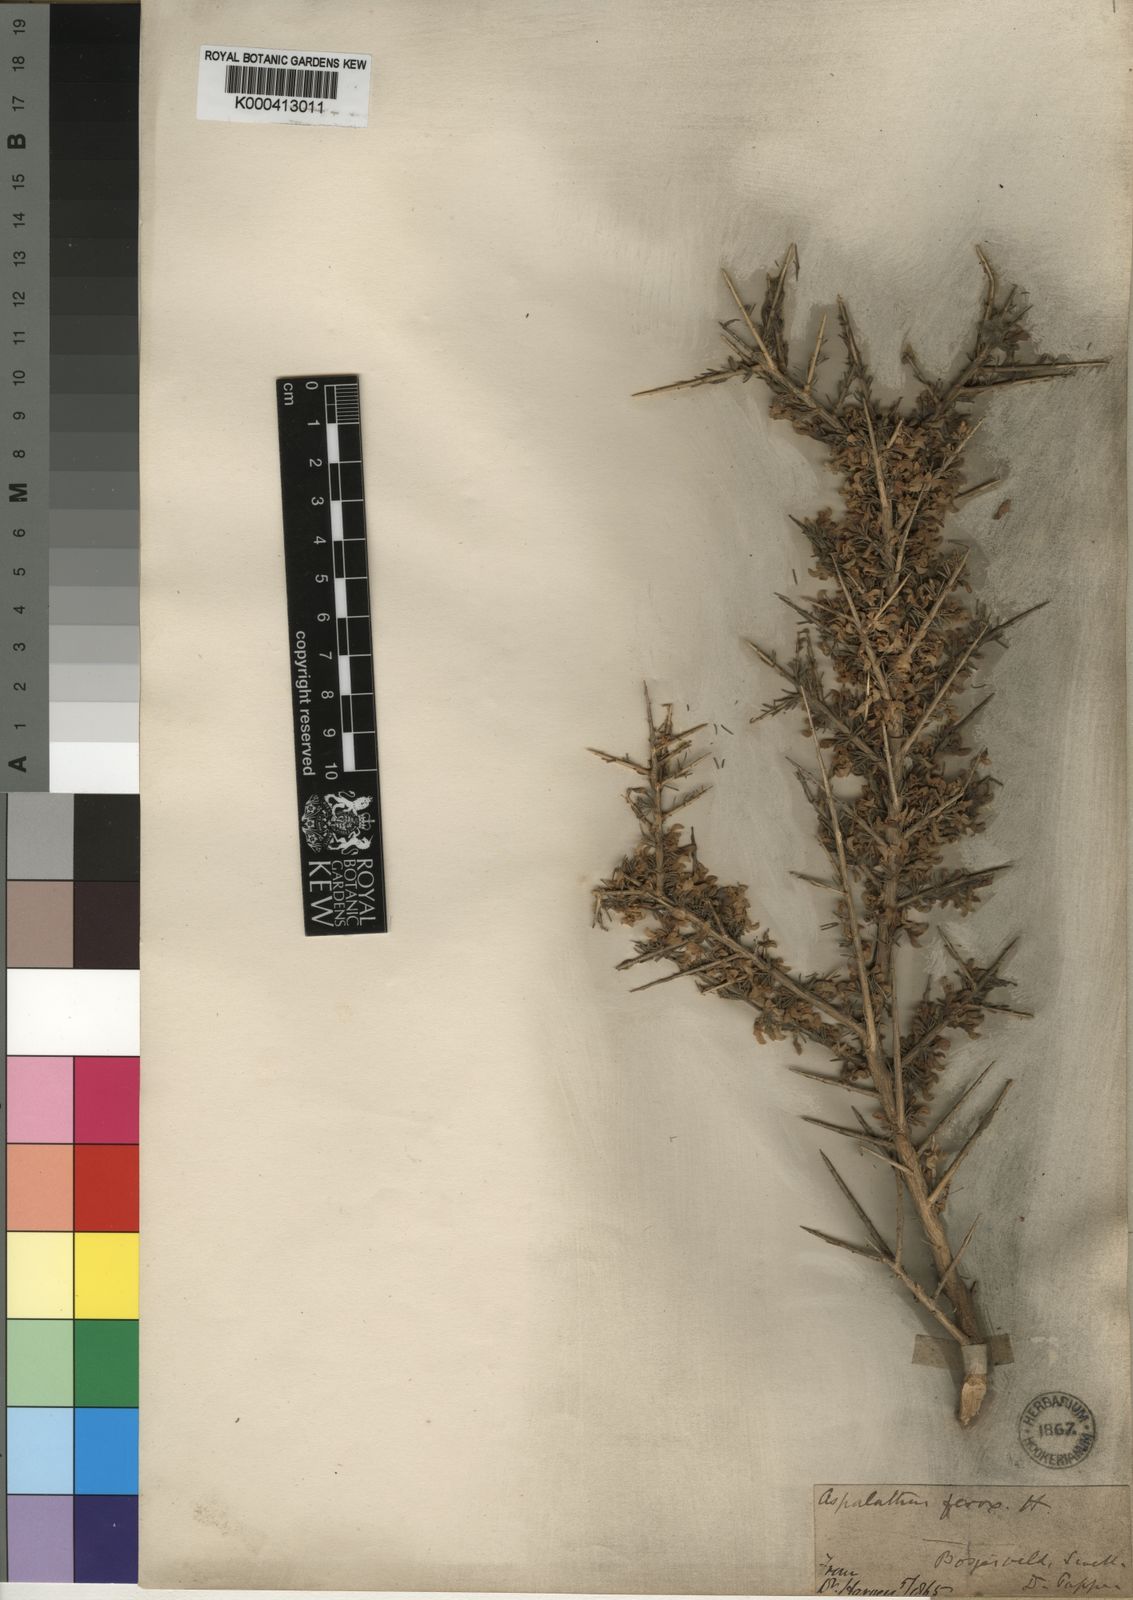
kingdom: Plantae
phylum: Tracheophyta
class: Magnoliopsida
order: Fabales
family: Fabaceae
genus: Aspalathus
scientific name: Aspalathus ferox
